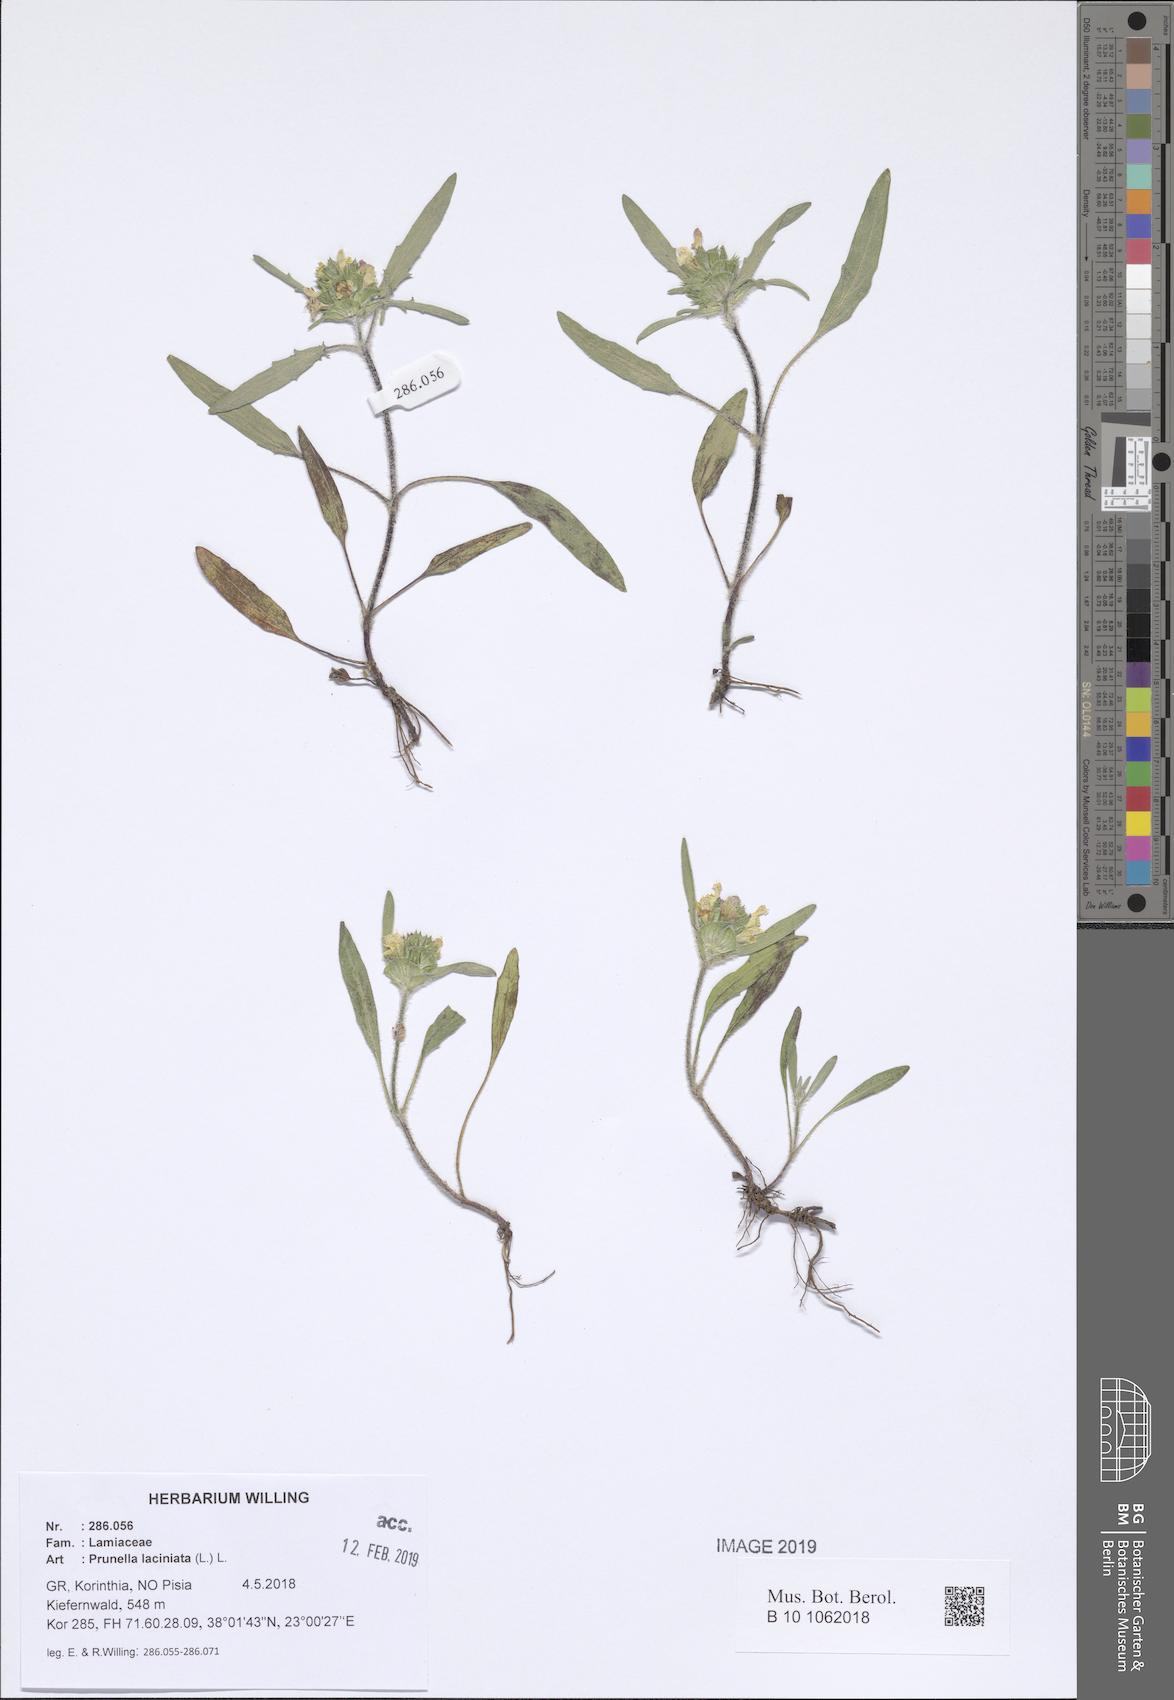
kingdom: Plantae
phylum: Tracheophyta
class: Magnoliopsida
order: Lamiales
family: Lamiaceae
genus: Prunella
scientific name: Prunella laciniata
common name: Cut-leaved selfheal
